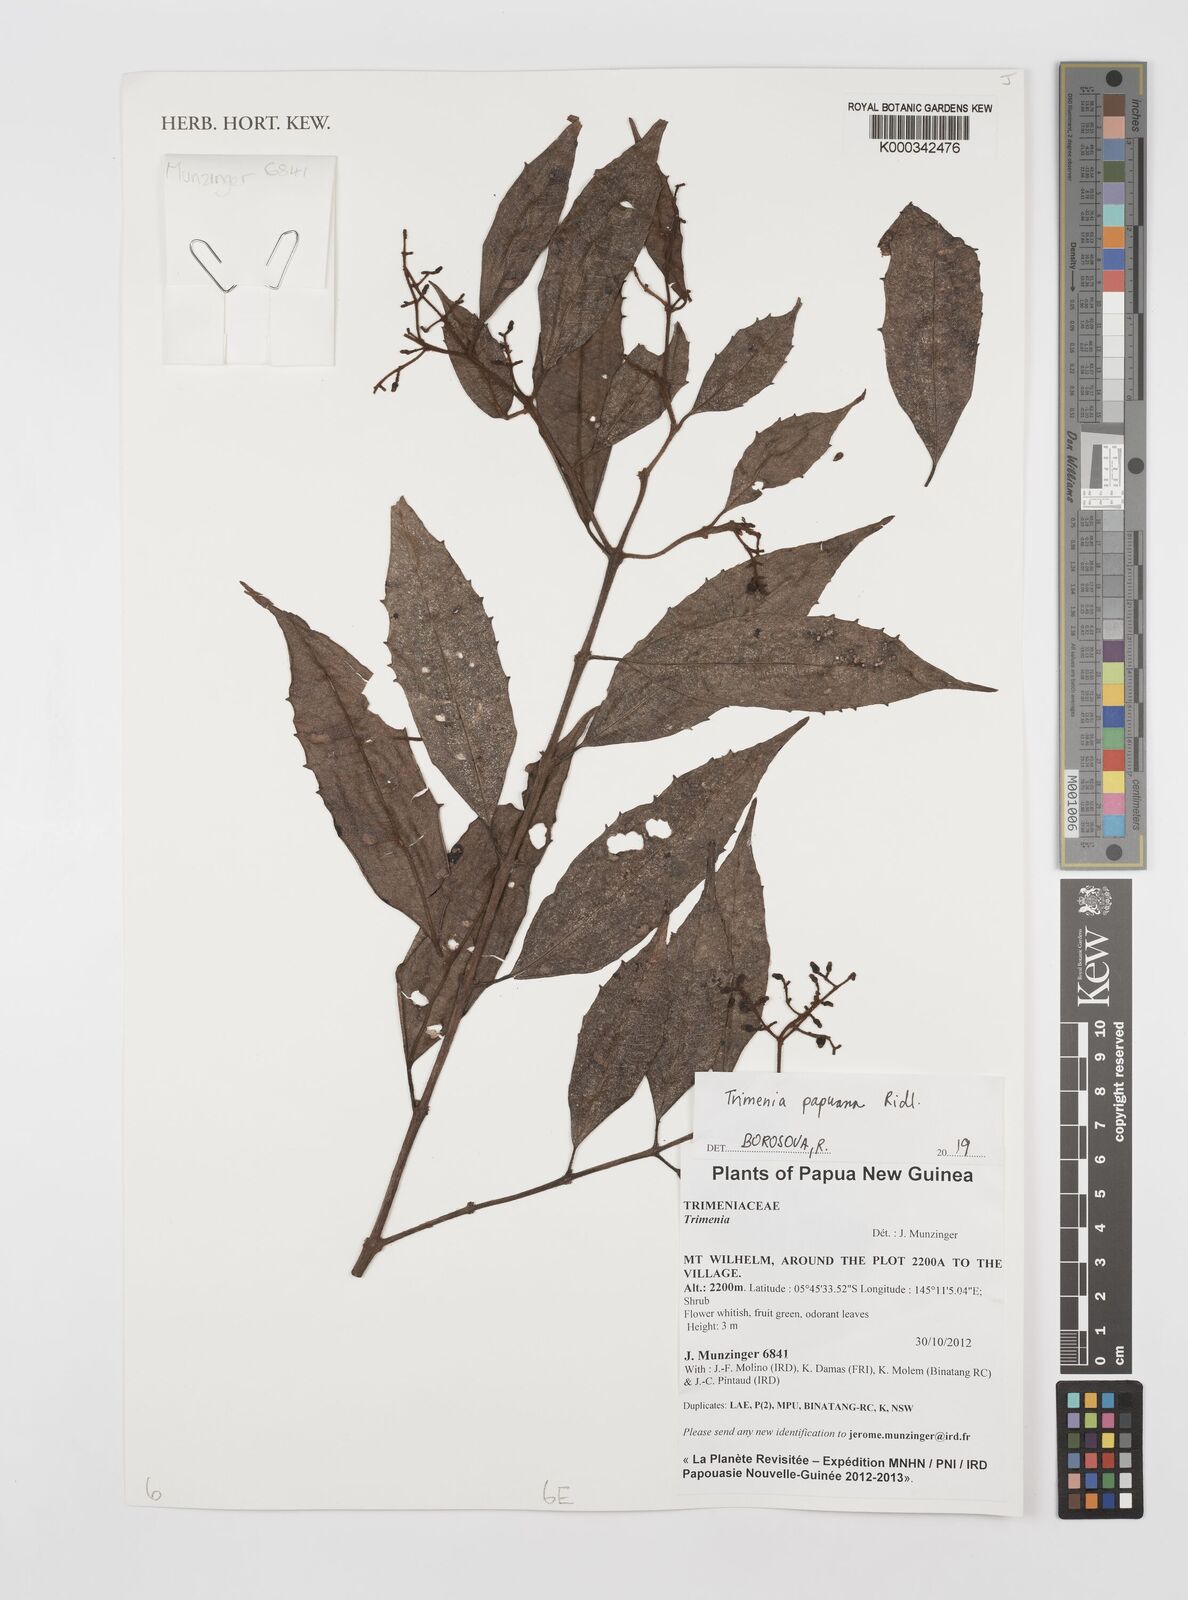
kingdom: Plantae
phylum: Tracheophyta
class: Magnoliopsida
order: Austrobaileyales
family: Trimeniaceae
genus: Trimenia
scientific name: Trimenia papuana
